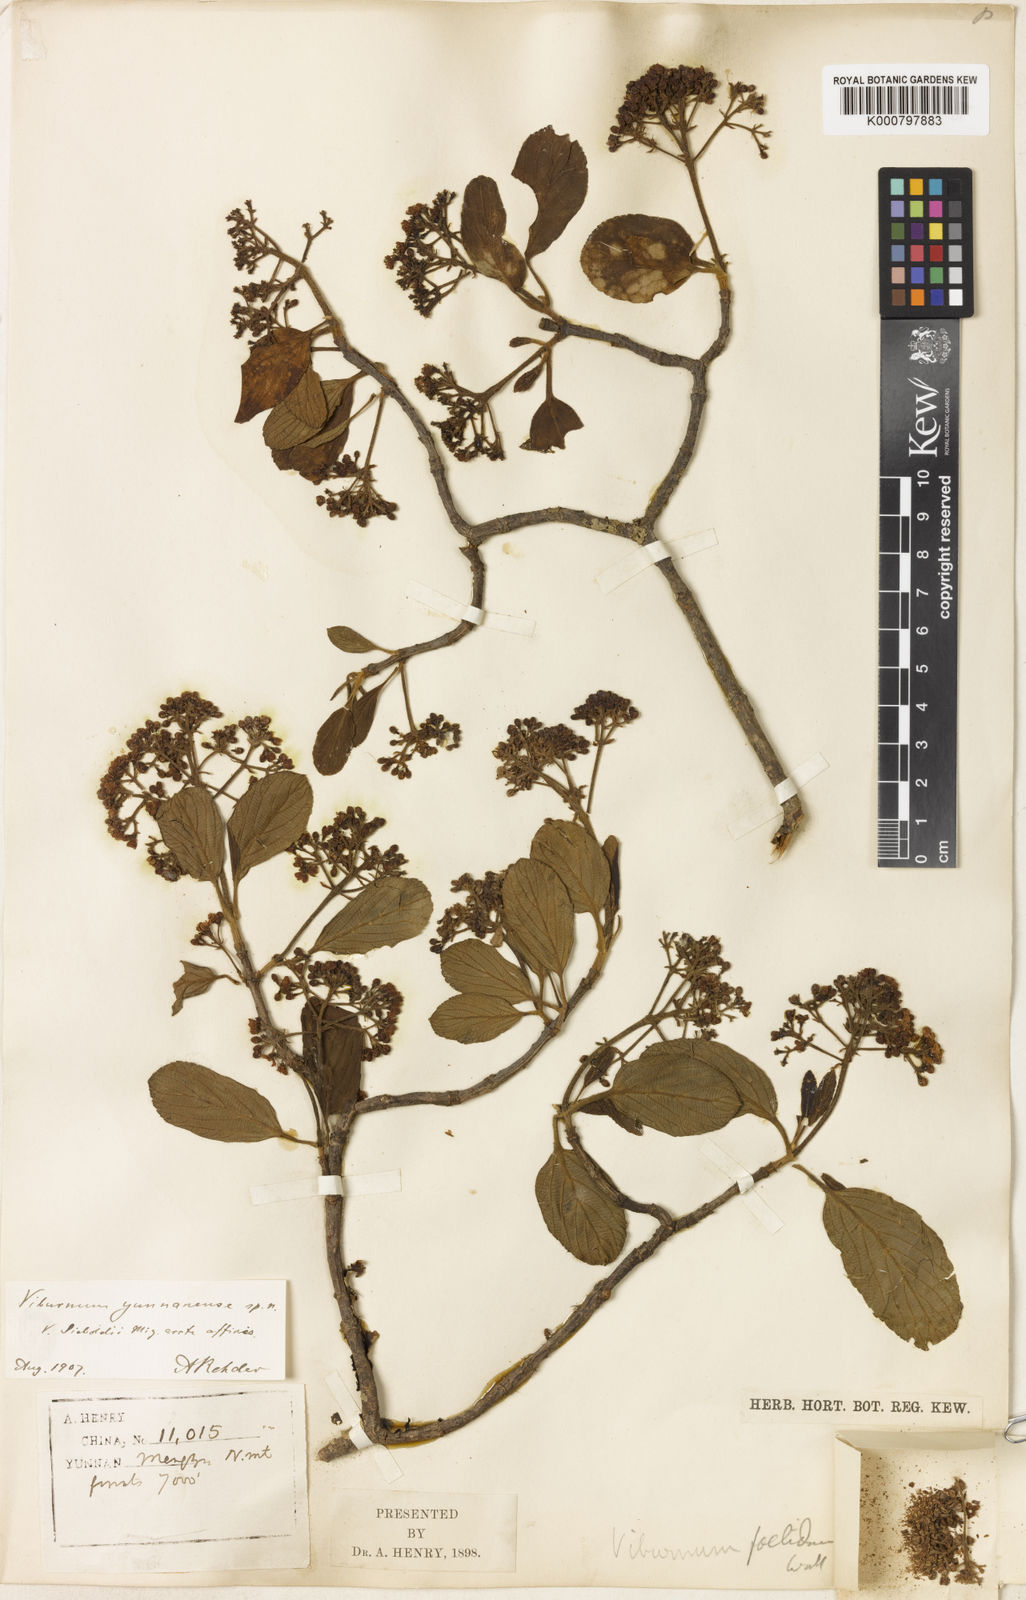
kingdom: Plantae
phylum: Tracheophyta
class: Magnoliopsida
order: Dipsacales
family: Viburnaceae
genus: Viburnum
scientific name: Viburnum yunnanense
